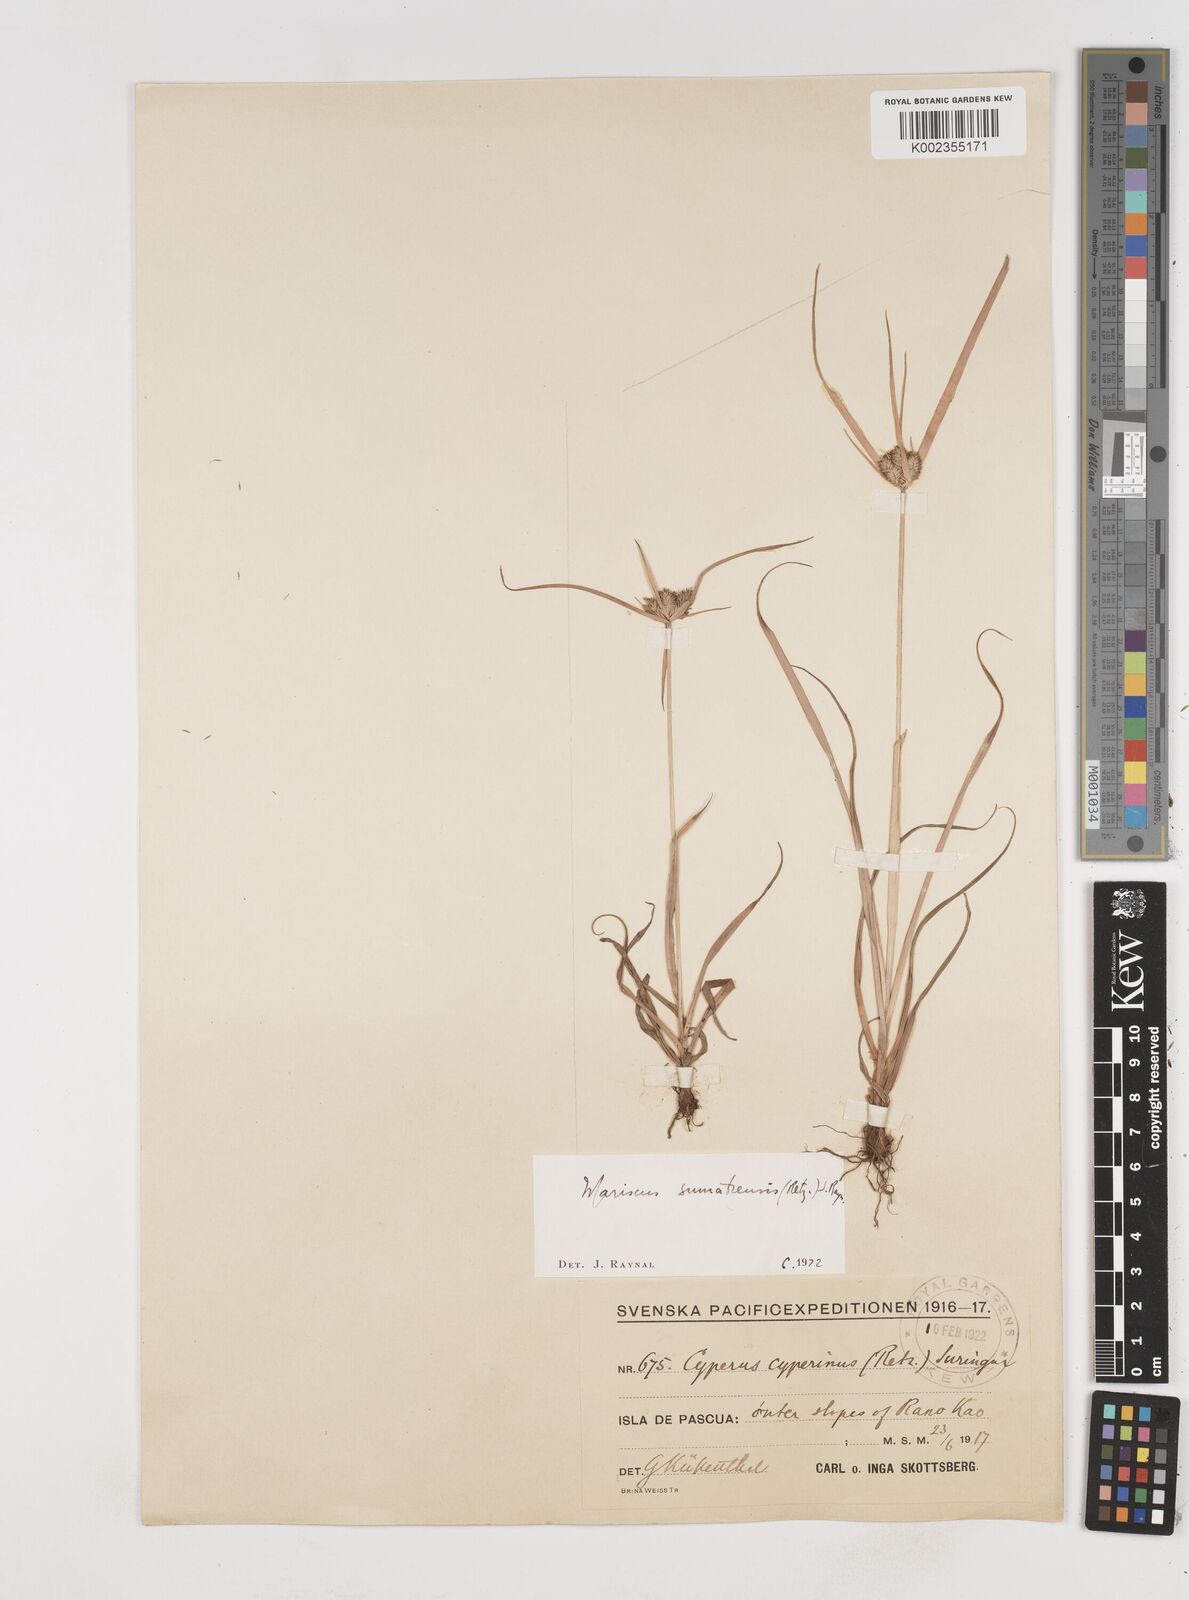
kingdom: Plantae
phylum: Tracheophyta
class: Liliopsida
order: Poales
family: Cyperaceae
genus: Cyperus
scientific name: Cyperus cyperoides
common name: Pacific island flat sedge
